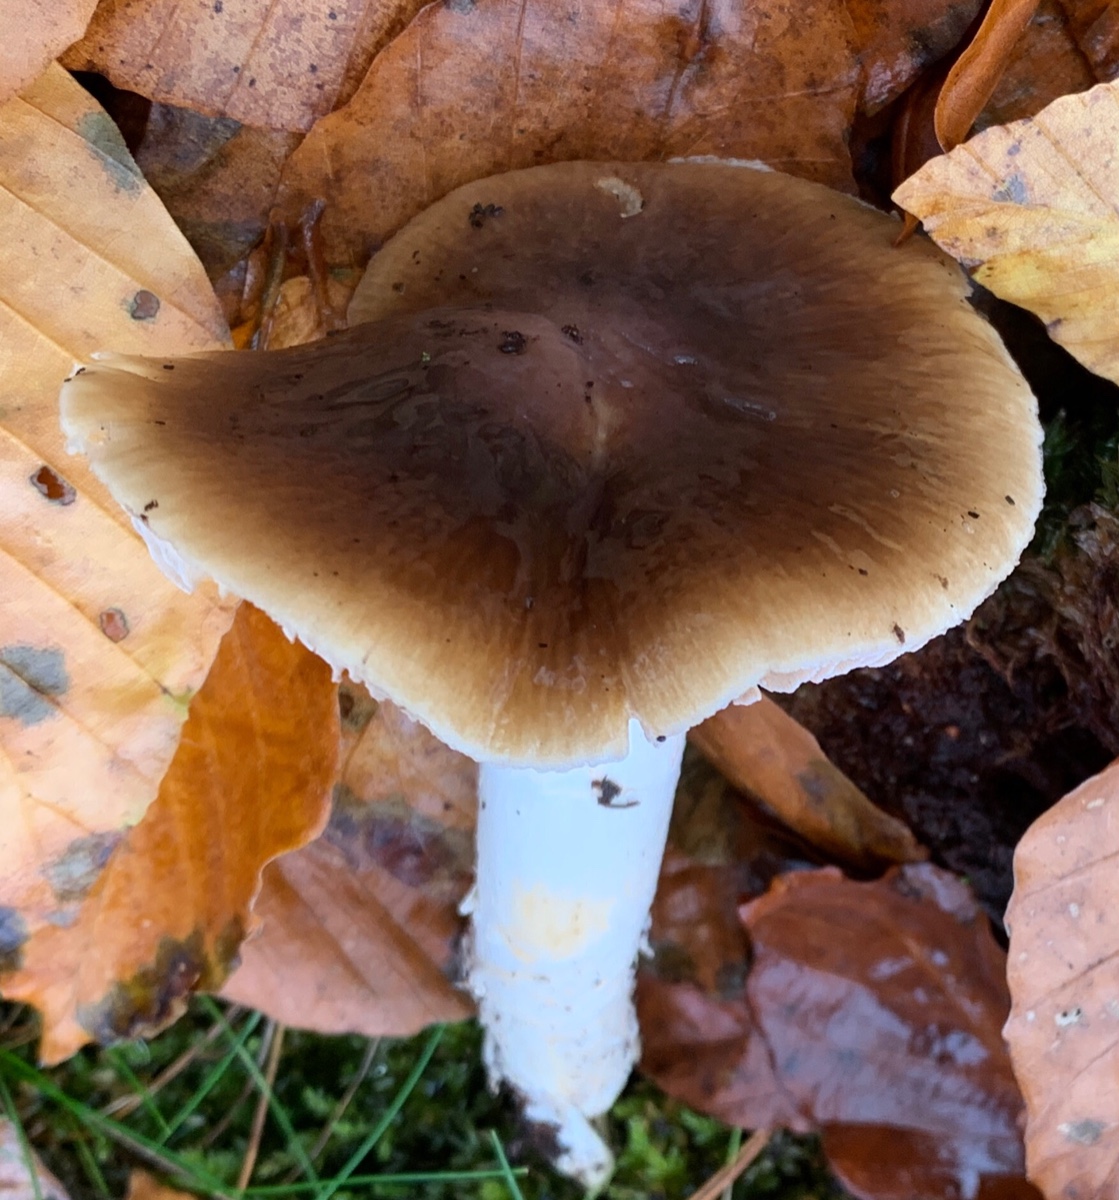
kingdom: Fungi
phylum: Basidiomycota
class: Agaricomycetes
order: Agaricales
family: Cortinariaceae
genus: Cortinarius
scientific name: Cortinarius elatior
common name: høj slørhat
